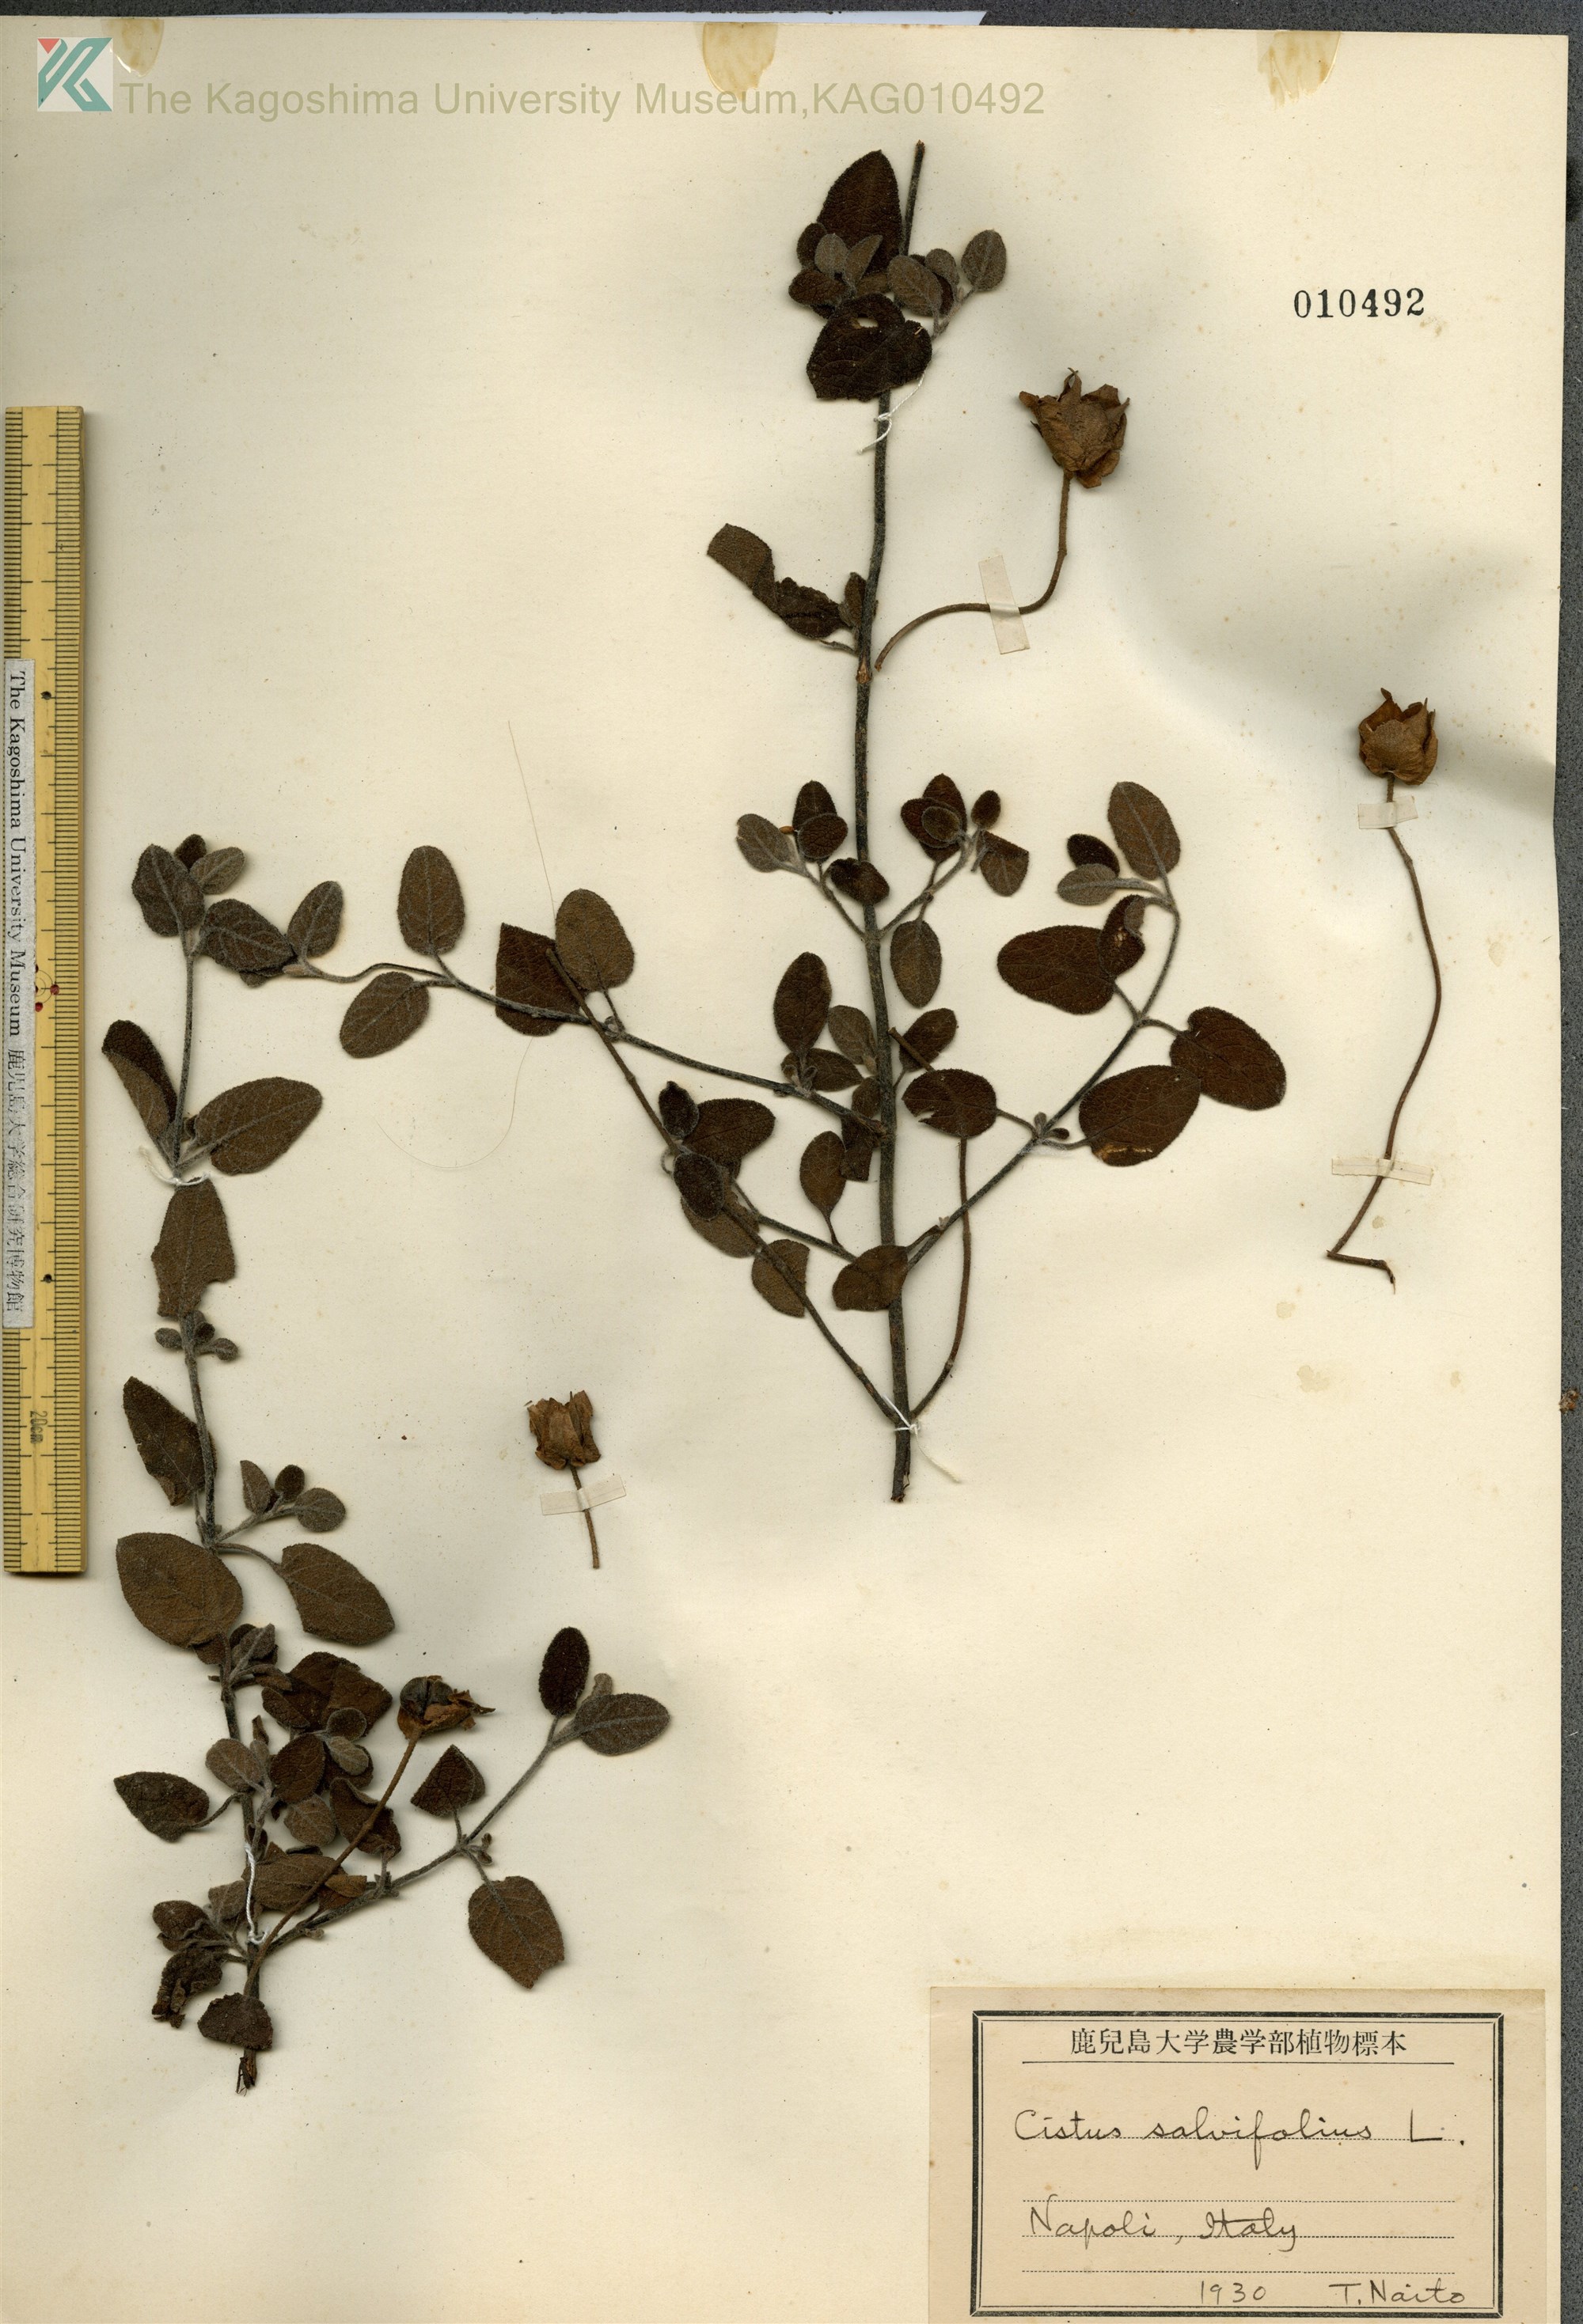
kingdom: Plantae
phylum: Tracheophyta
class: Magnoliopsida
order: Malvales
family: Cistaceae
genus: Cistus
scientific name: Cistus salviifolius
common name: Salvia cistus
